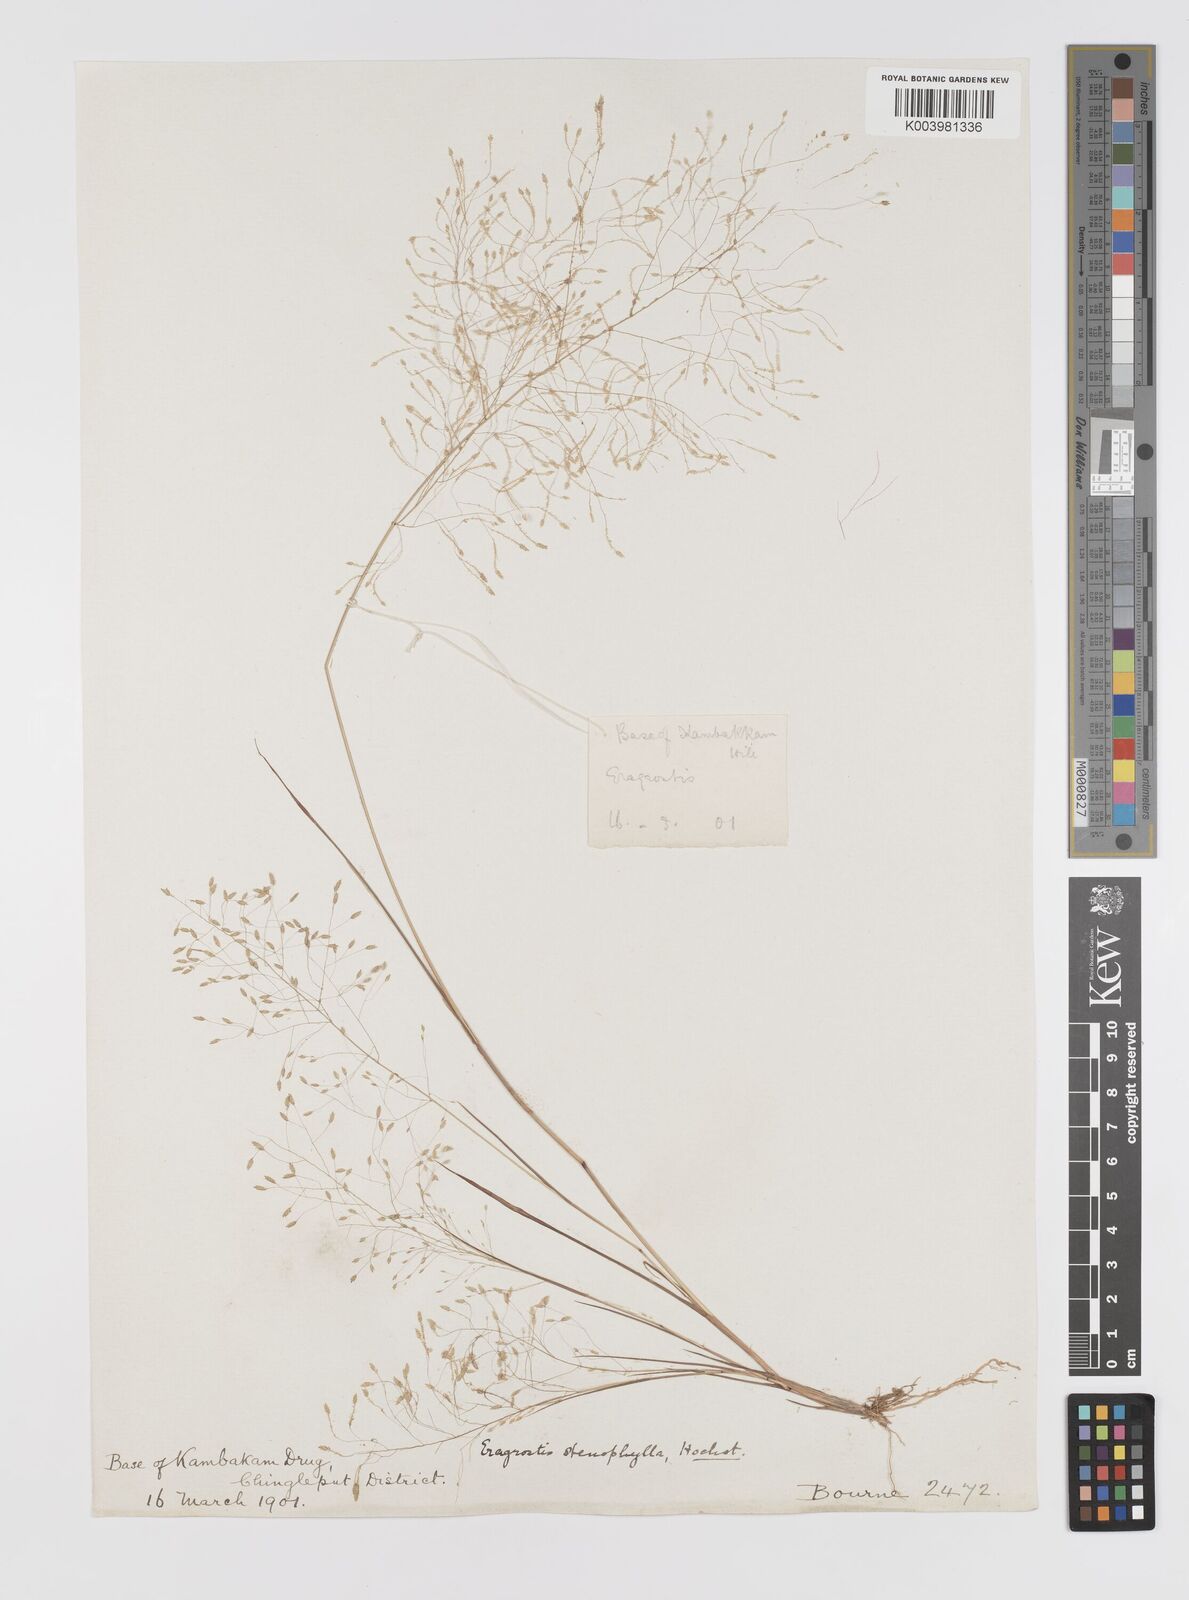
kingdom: Plantae
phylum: Tracheophyta
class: Liliopsida
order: Poales
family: Poaceae
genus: Eragrostis
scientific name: Eragrostis gangetica
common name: Slimflower lovegrass
